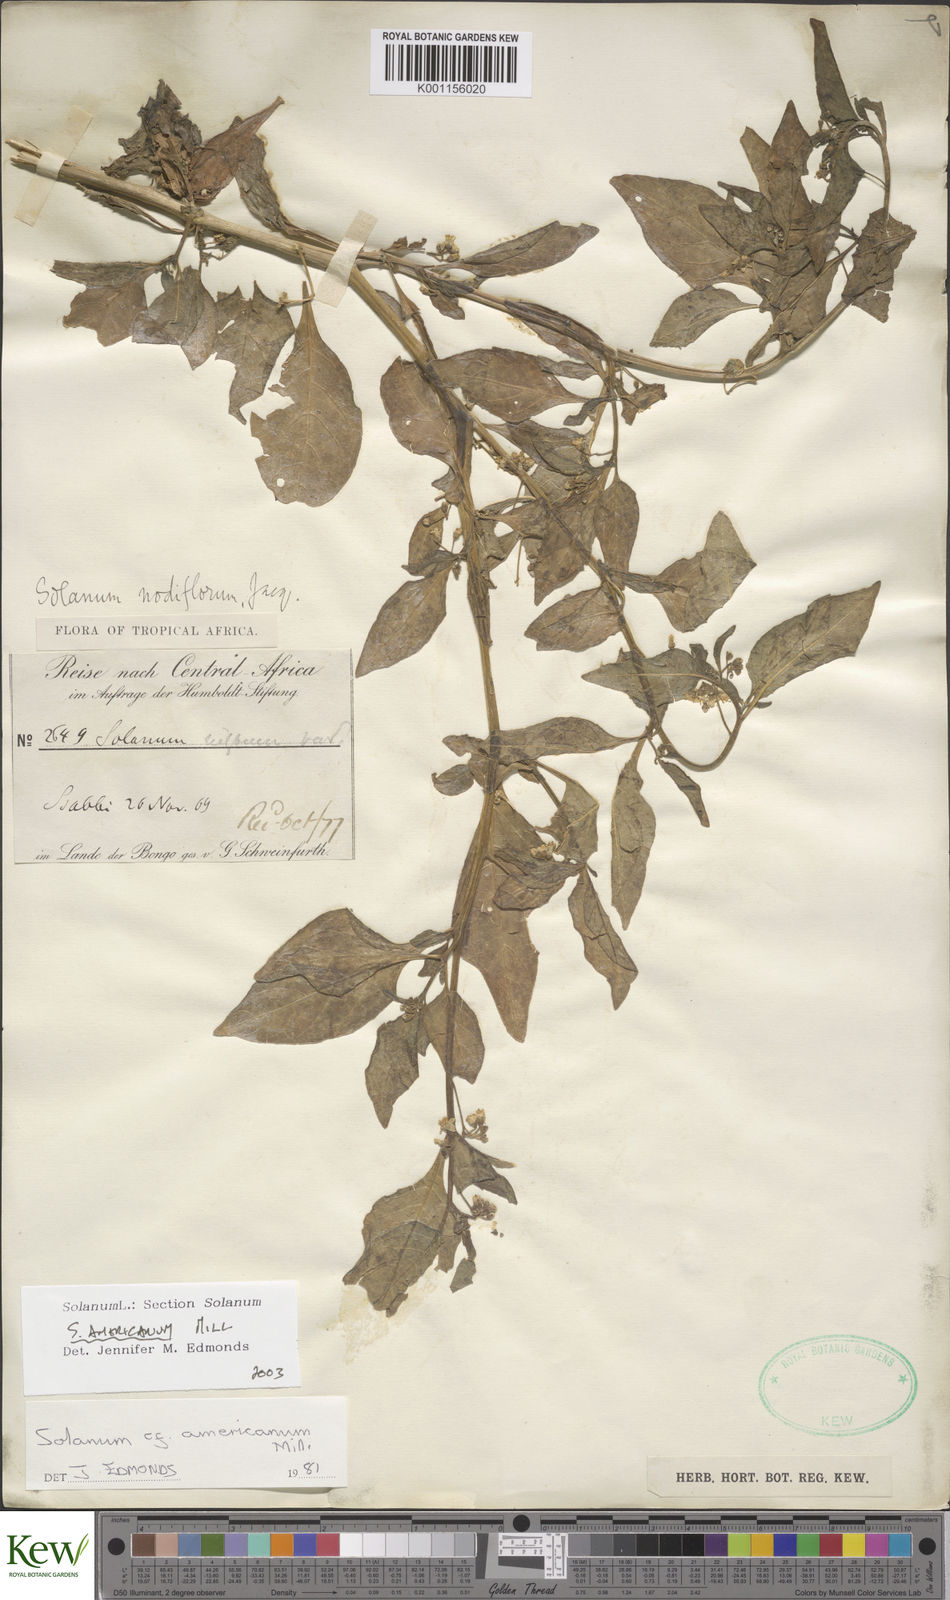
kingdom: Plantae
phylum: Tracheophyta
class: Magnoliopsida
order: Solanales
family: Solanaceae
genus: Solanum
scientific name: Solanum tarderemotum
